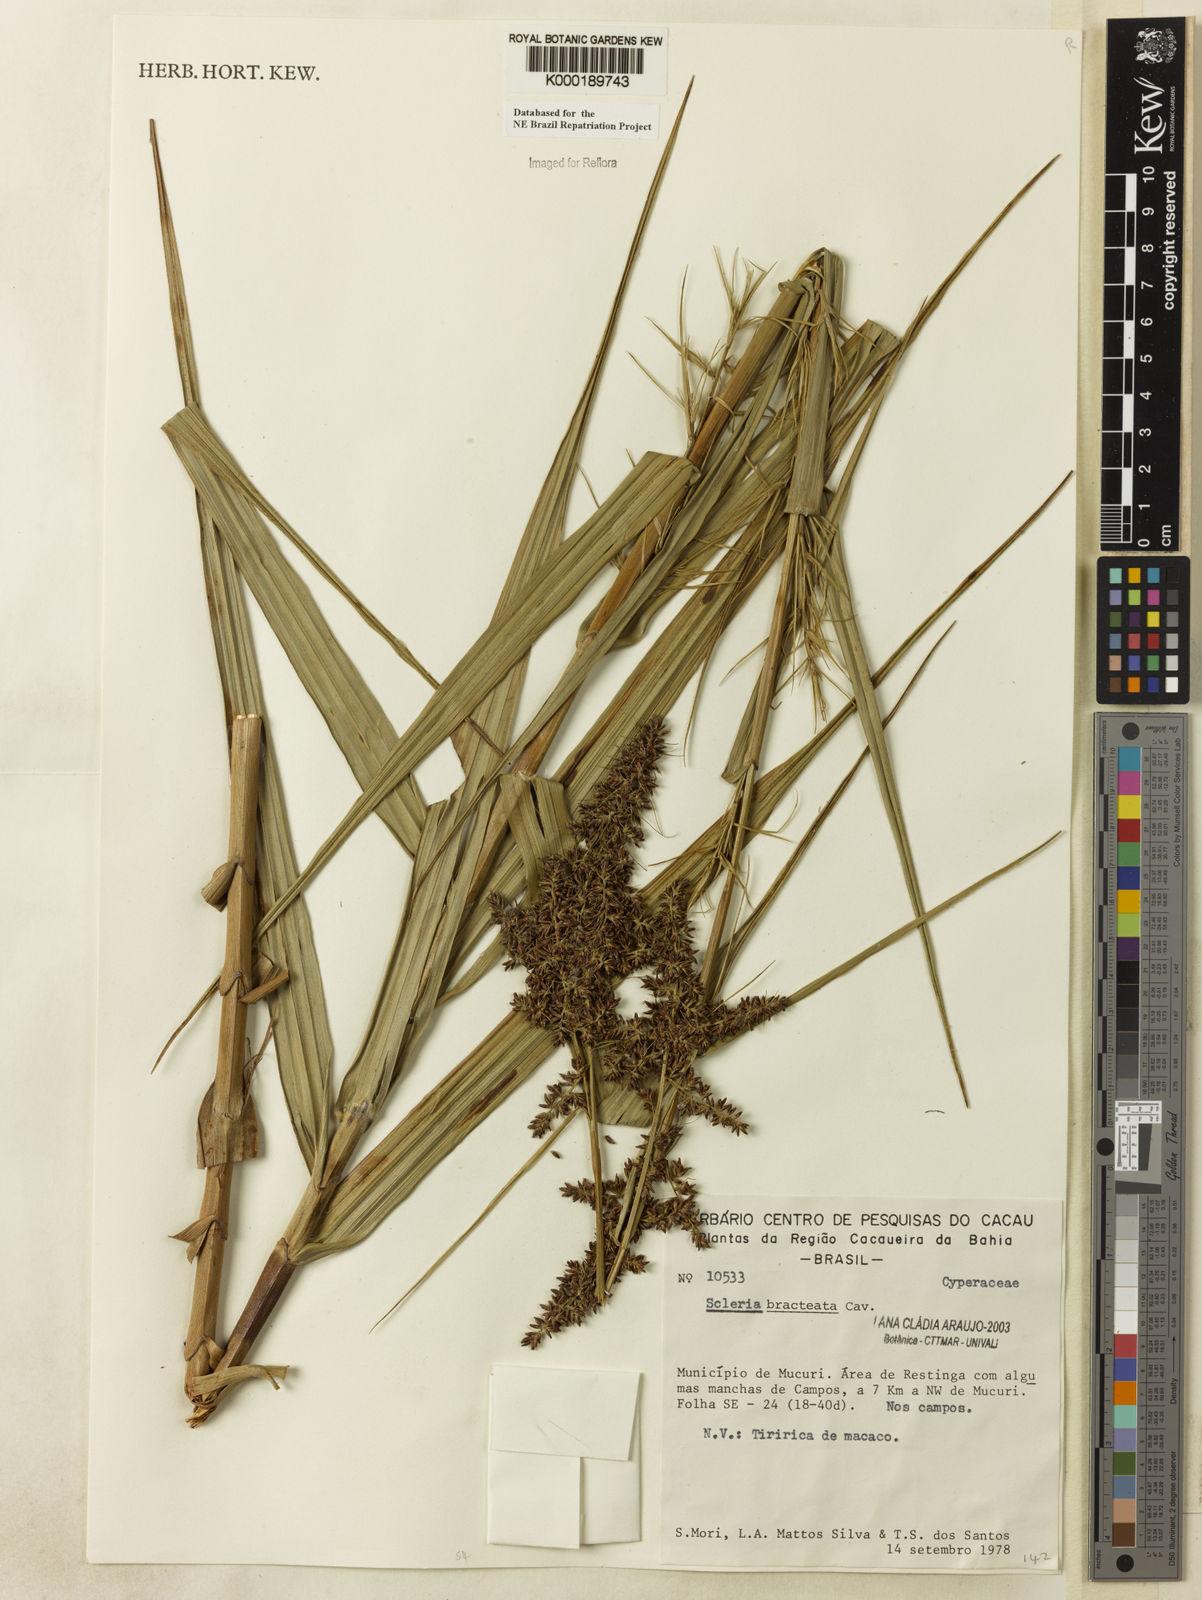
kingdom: Plantae
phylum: Tracheophyta
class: Liliopsida
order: Poales
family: Cyperaceae
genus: Scleria
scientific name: Scleria bracteata
